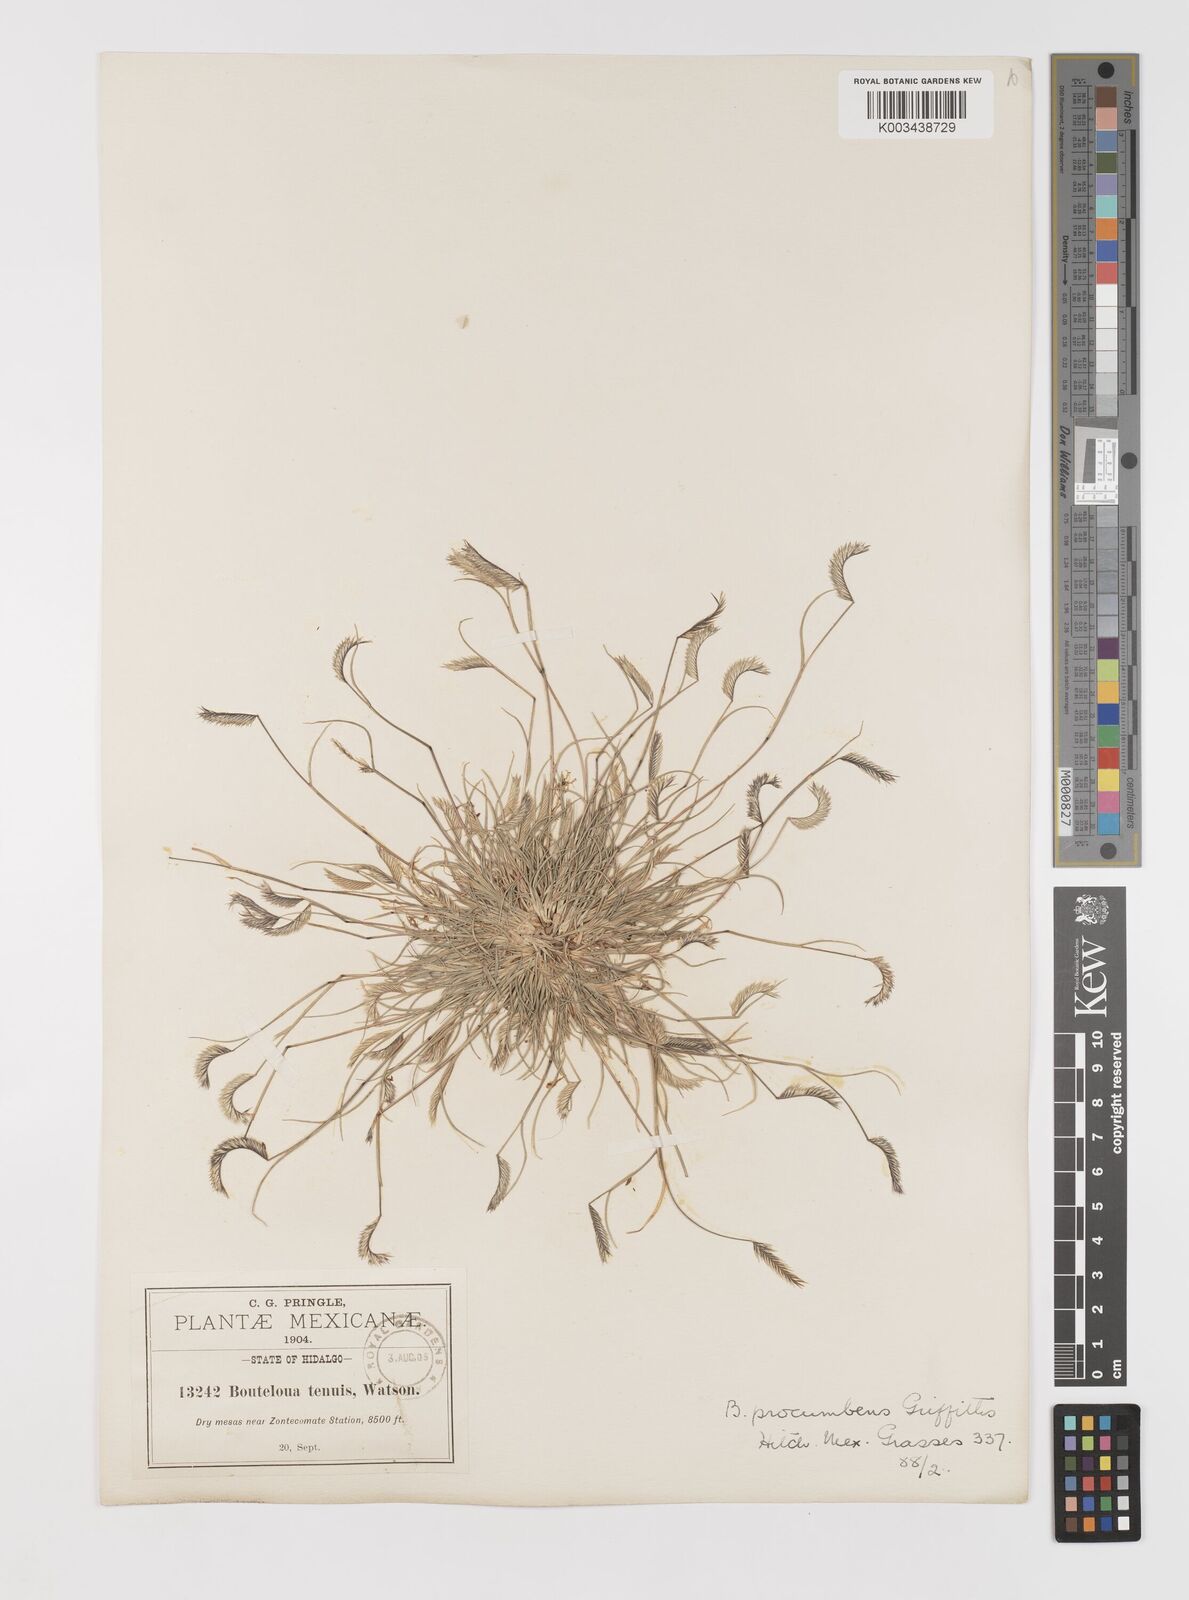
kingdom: Plantae
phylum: Tracheophyta
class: Liliopsida
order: Poales
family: Poaceae
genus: Bouteloua
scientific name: Bouteloua simplex
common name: Mat grama
